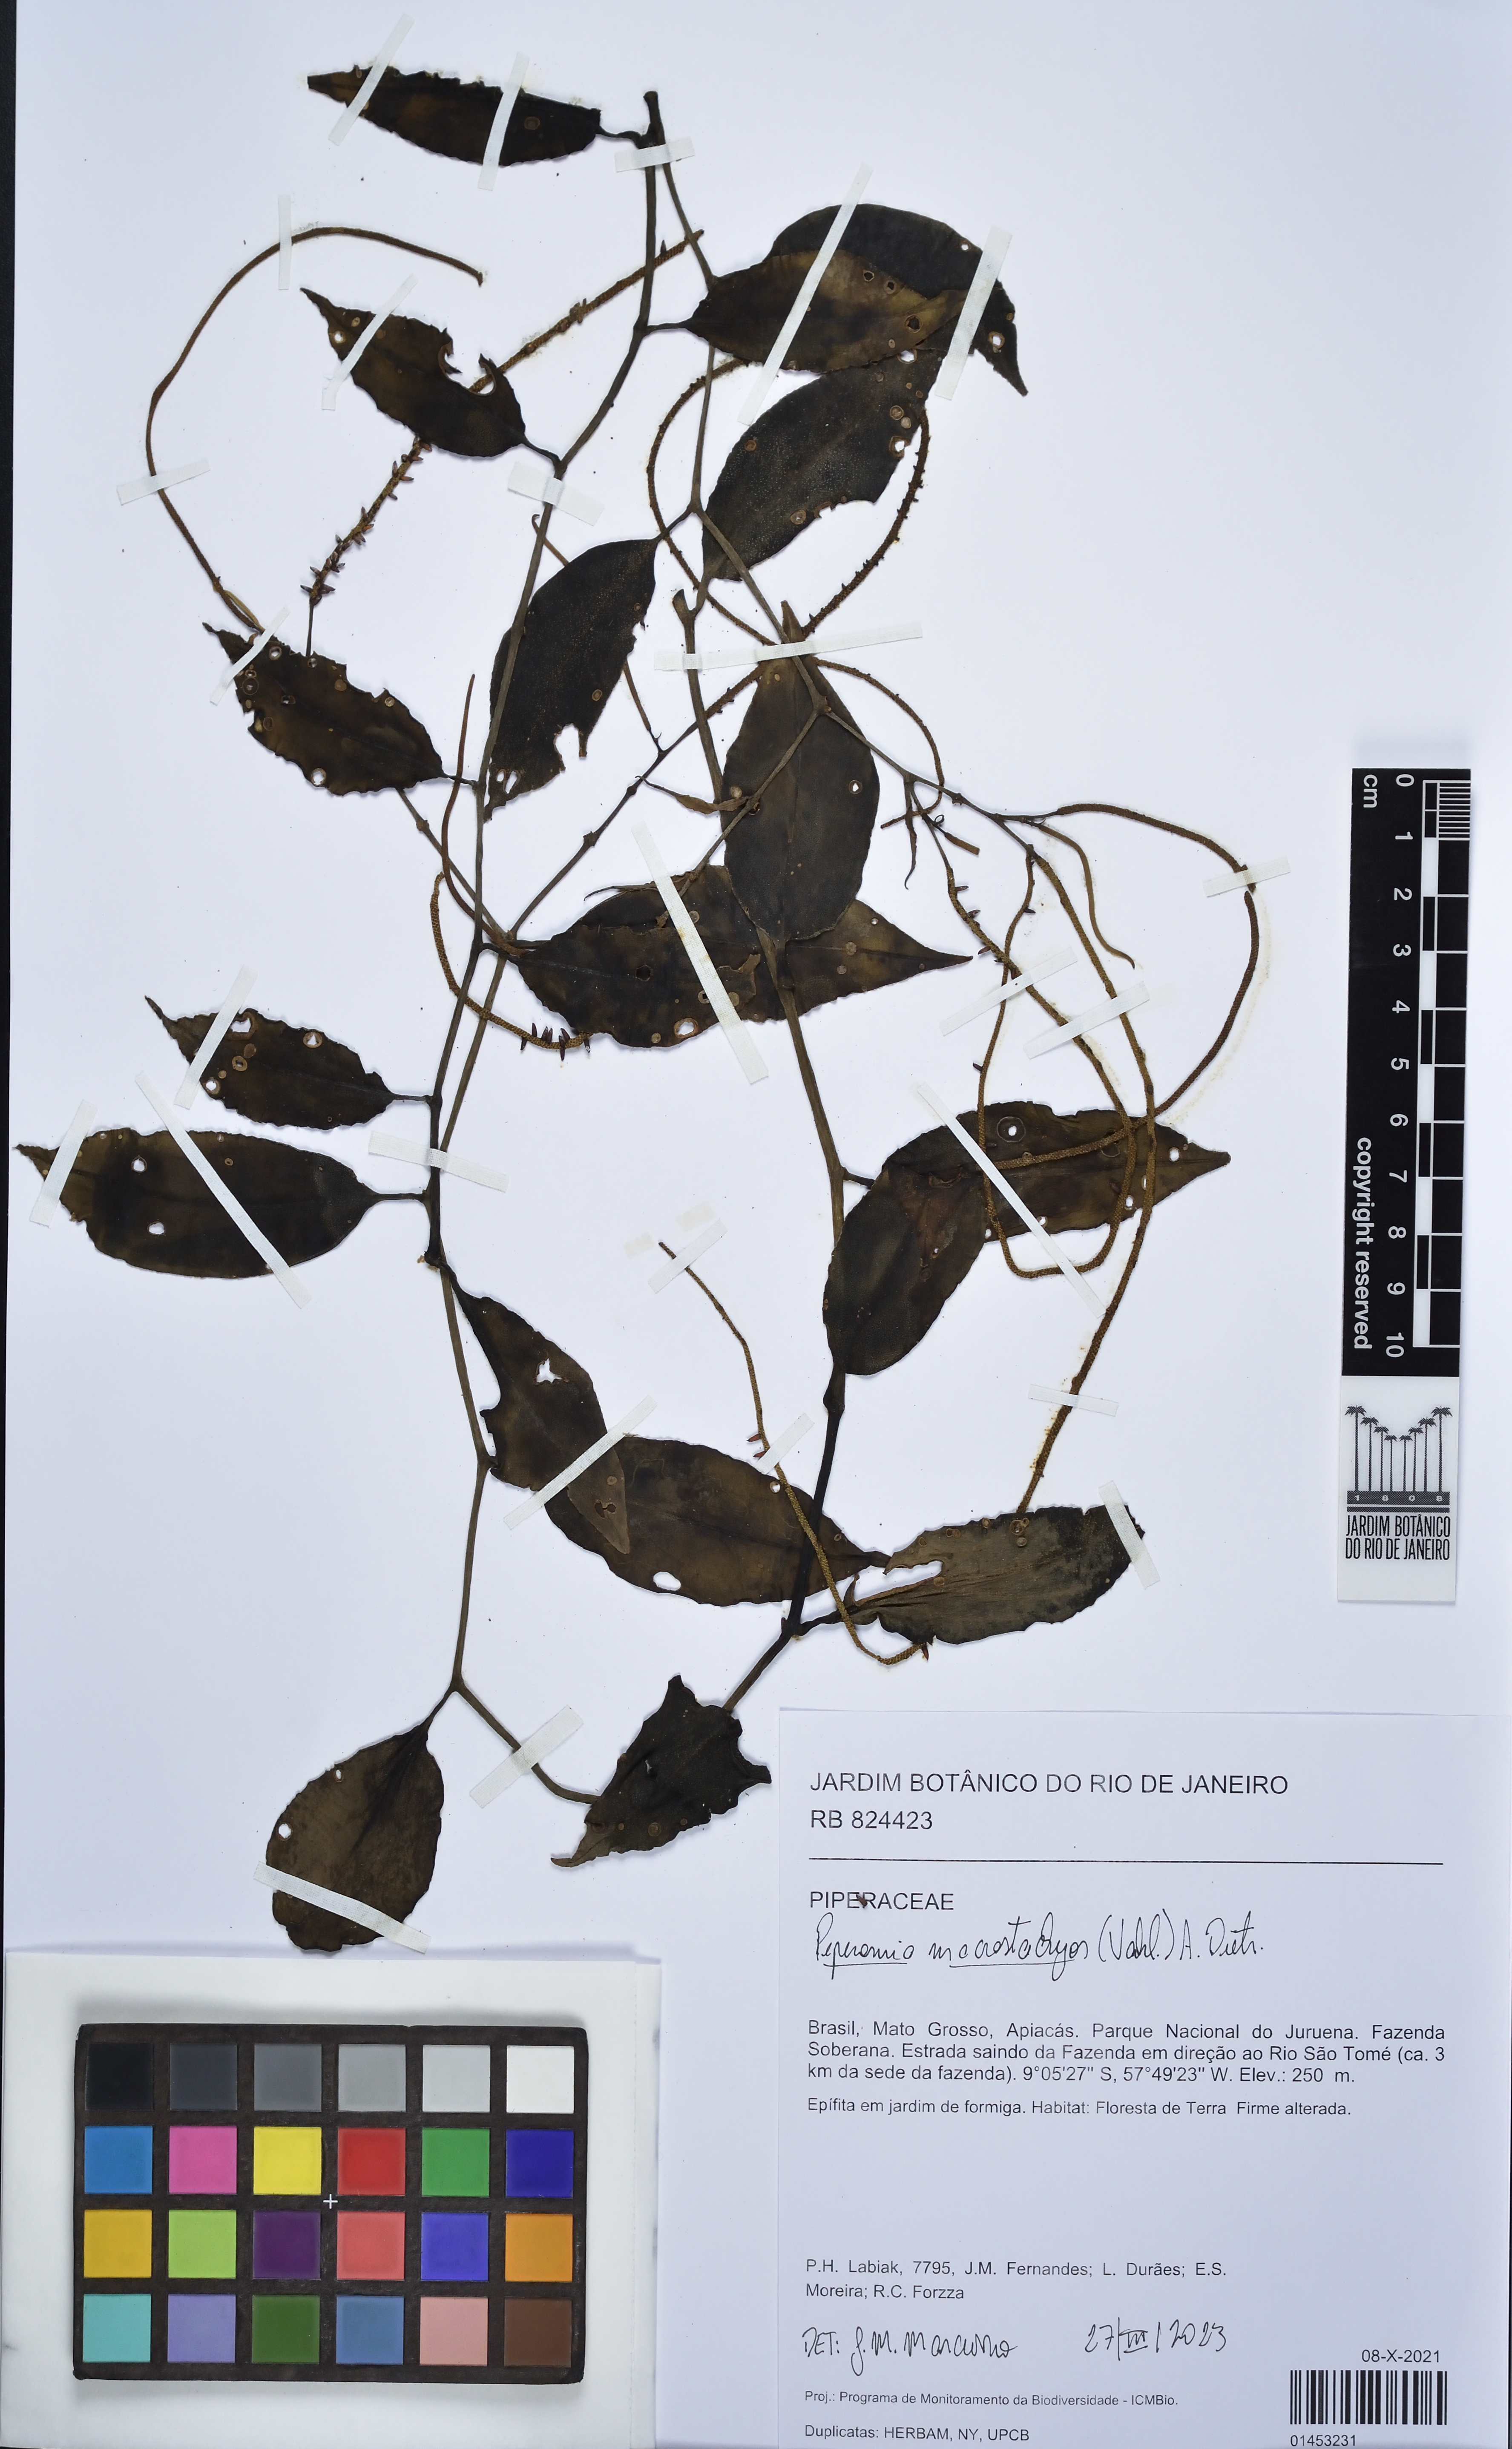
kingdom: Plantae
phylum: Tracheophyta
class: Magnoliopsida
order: Piperales
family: Piperaceae
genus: Peperomia
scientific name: Peperomia macrostachyos
